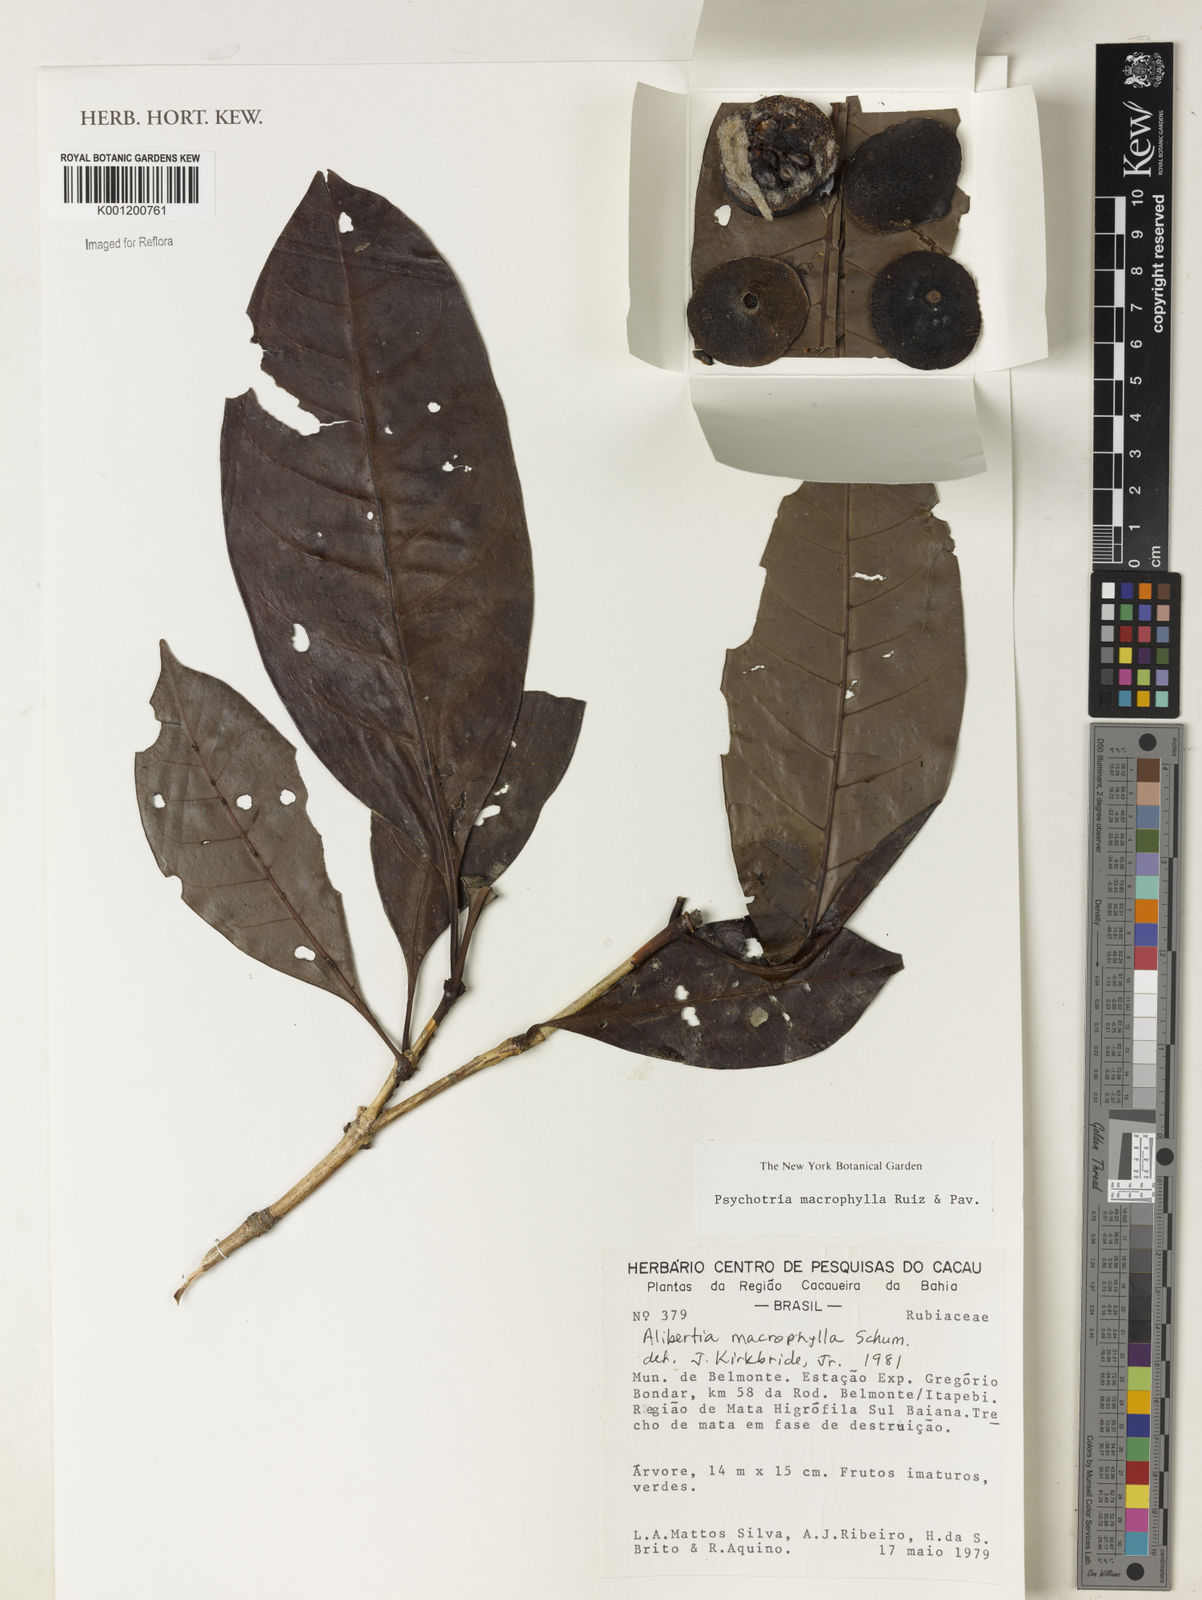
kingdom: Plantae
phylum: Tracheophyta
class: Magnoliopsida
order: Gentianales
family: Rubiaceae
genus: Notopleura
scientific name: Notopleura macrophylla
